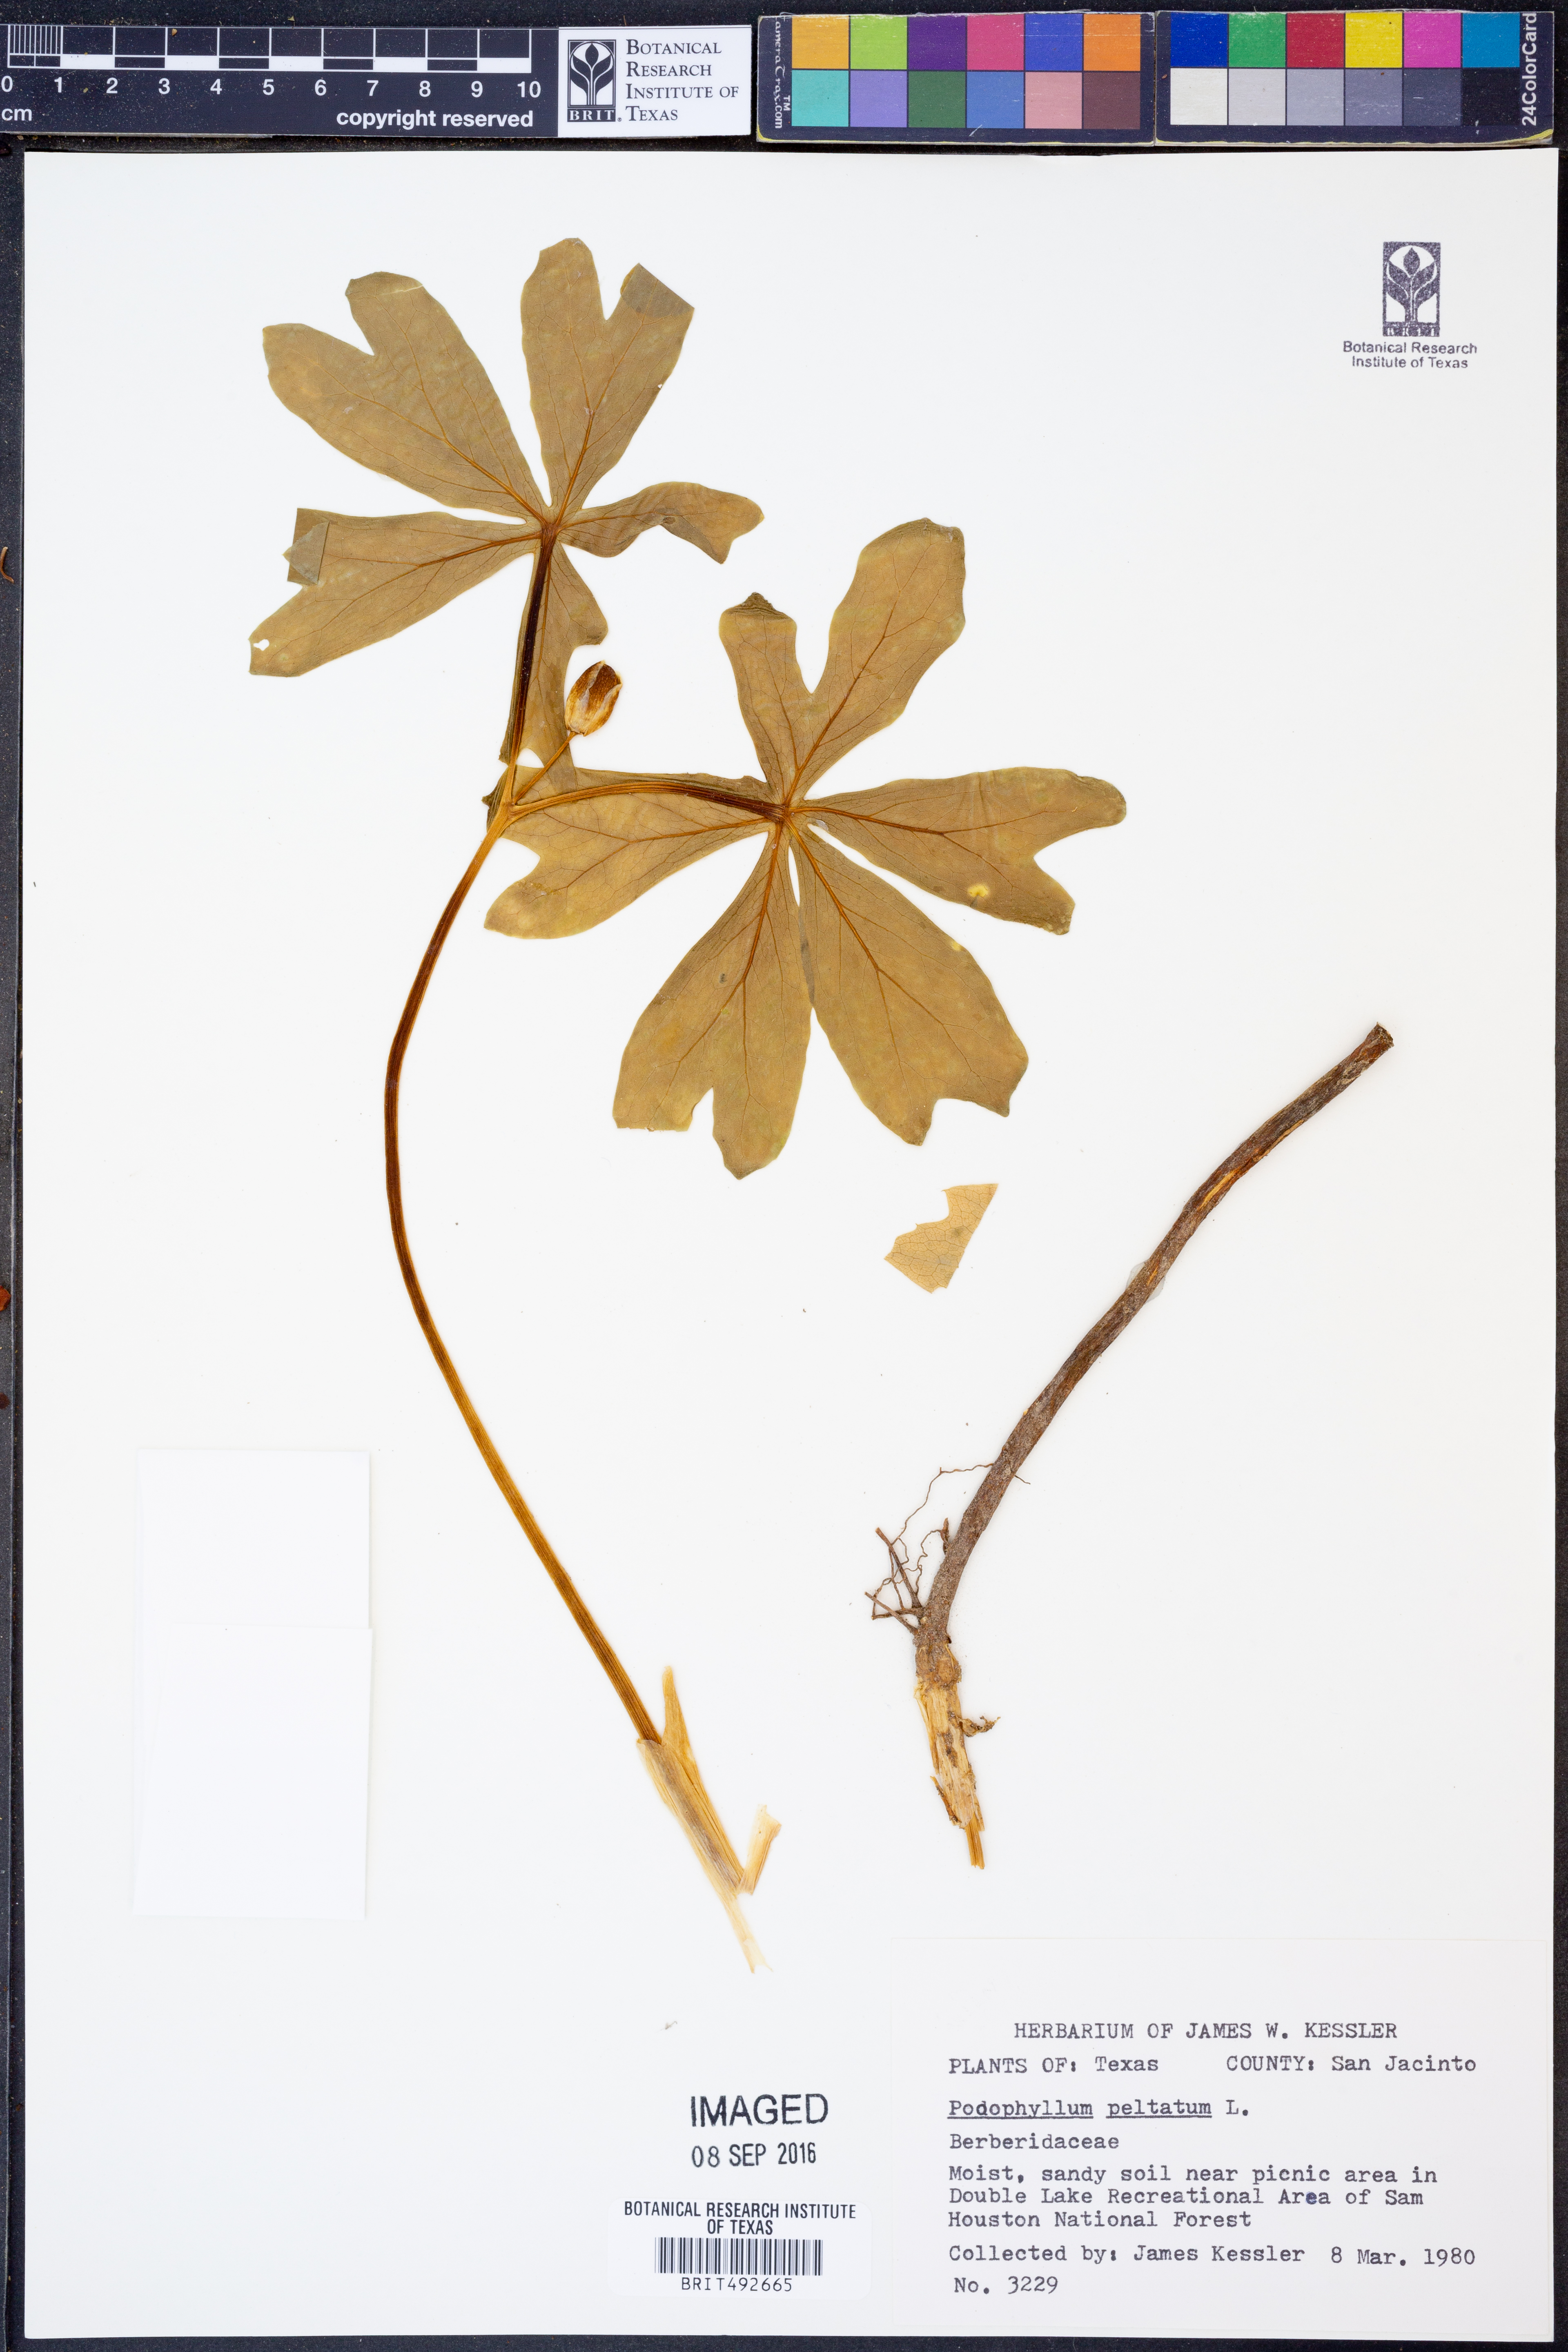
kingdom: Plantae
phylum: Tracheophyta
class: Magnoliopsida
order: Ranunculales
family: Berberidaceae
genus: Podophyllum
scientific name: Podophyllum peltatum
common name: Wild mandrake
